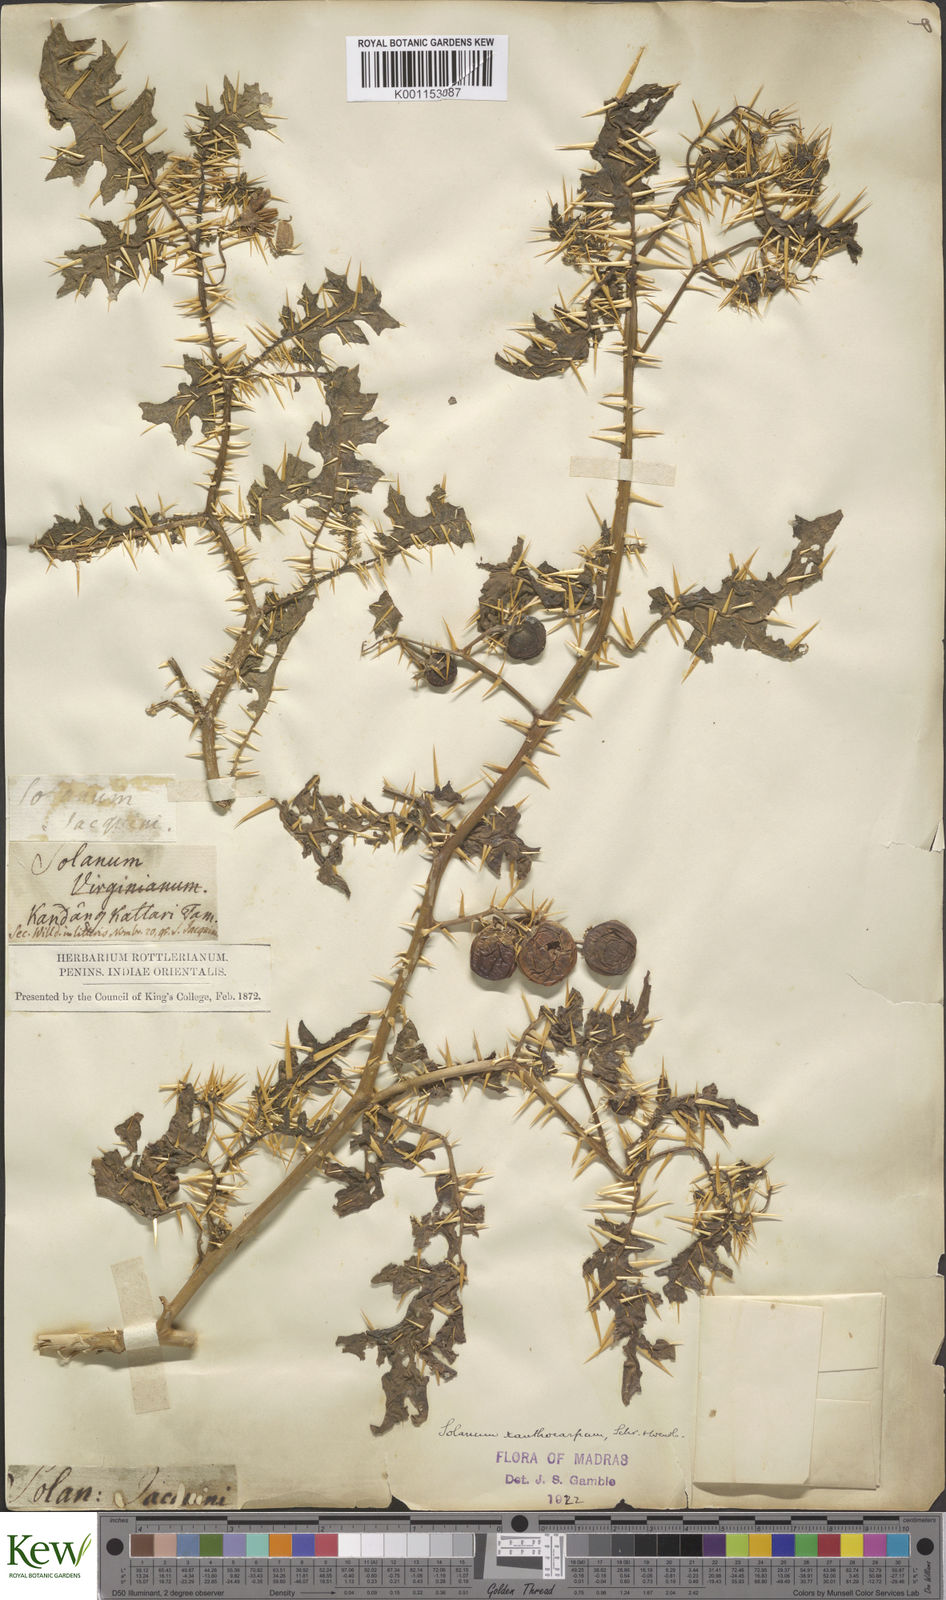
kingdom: Plantae
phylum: Tracheophyta
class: Magnoliopsida
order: Solanales
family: Solanaceae
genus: Solanum
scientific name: Solanum virginianum
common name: Surattense nightshade
